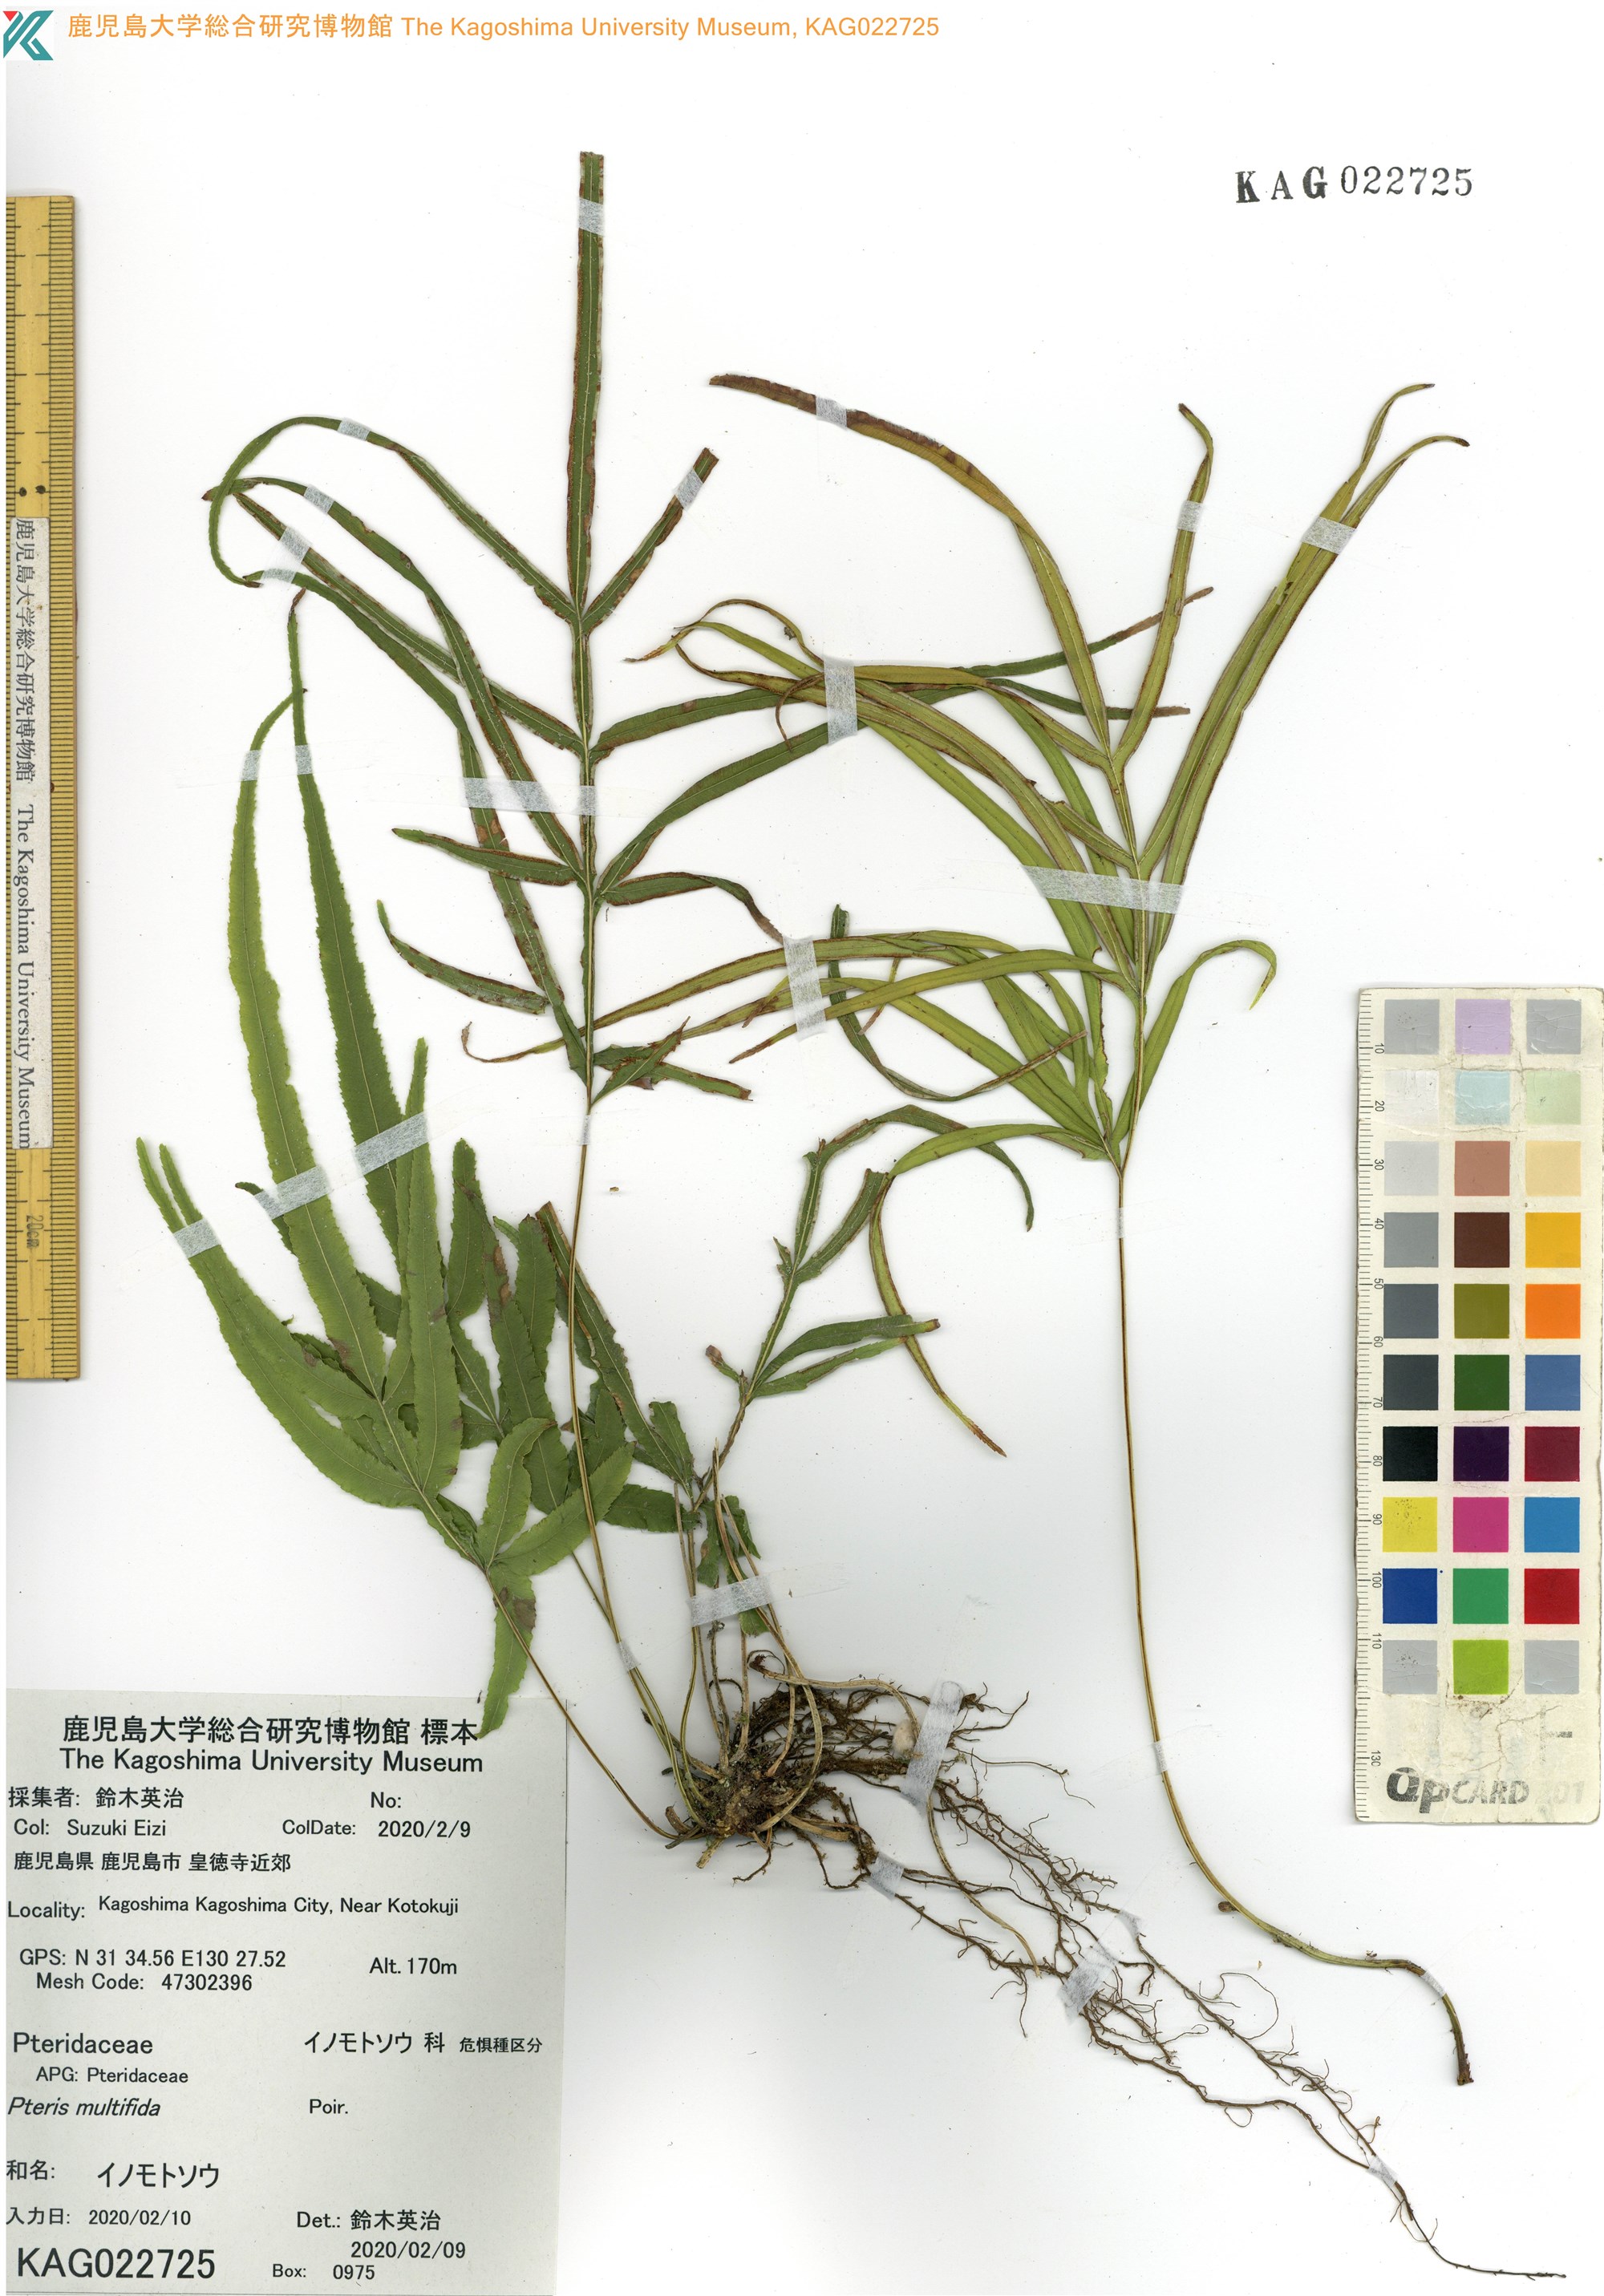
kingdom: Plantae
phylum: Tracheophyta
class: Polypodiopsida
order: Polypodiales
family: Pteridaceae
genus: Pteris
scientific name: Pteris multifida
